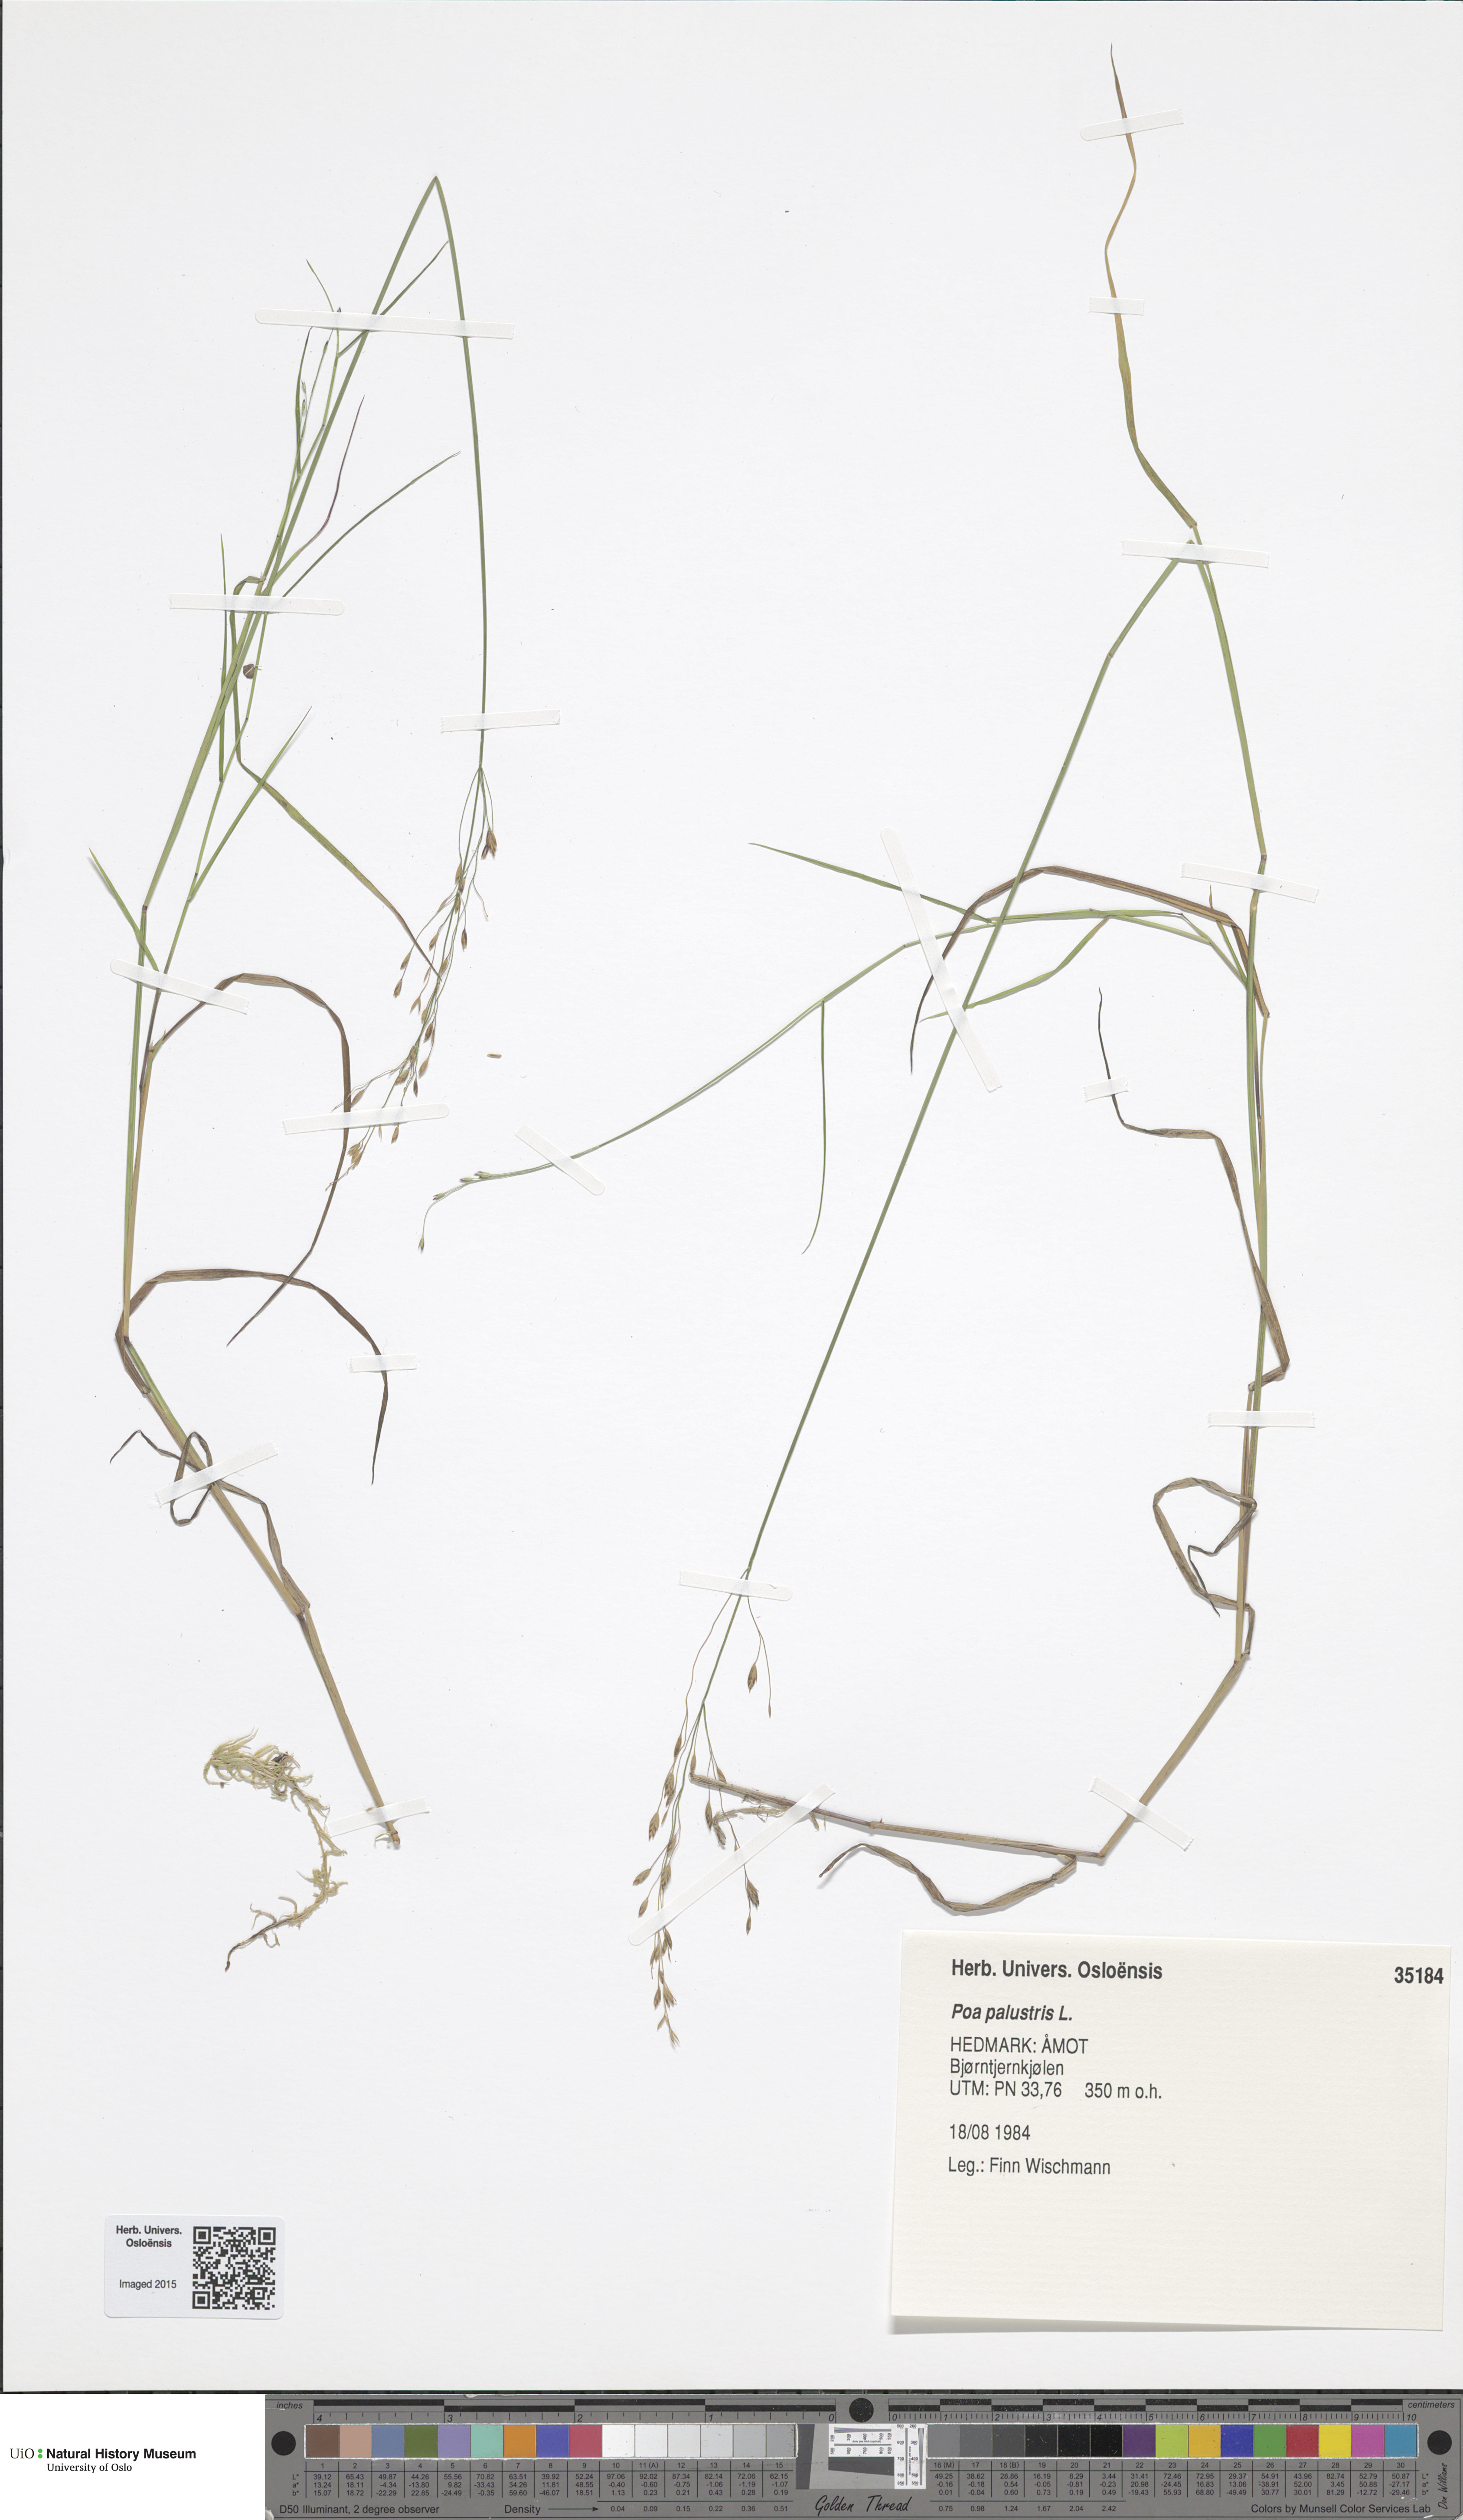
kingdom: Plantae
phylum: Tracheophyta
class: Liliopsida
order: Poales
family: Poaceae
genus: Poa
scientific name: Poa palustris
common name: Swamp meadow-grass
